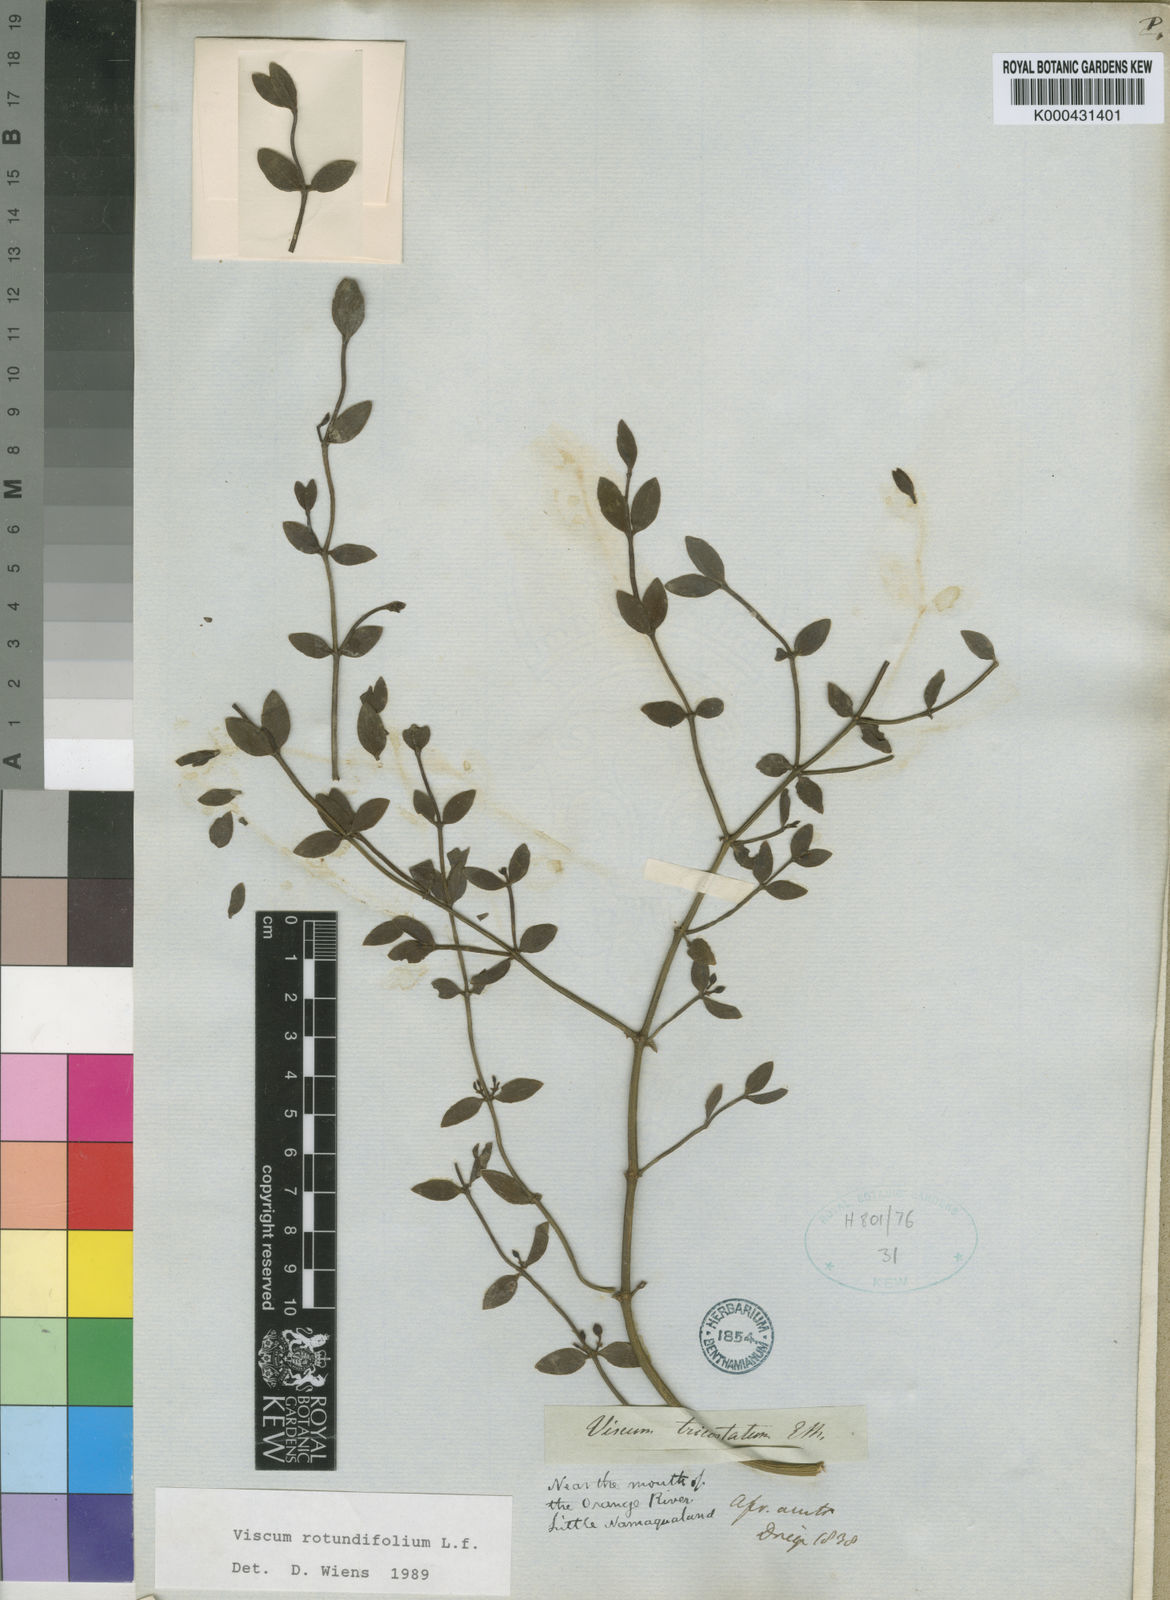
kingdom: Plantae
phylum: Tracheophyta
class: Magnoliopsida
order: Santalales
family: Viscaceae
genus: Viscum
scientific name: Viscum rotundifolium
